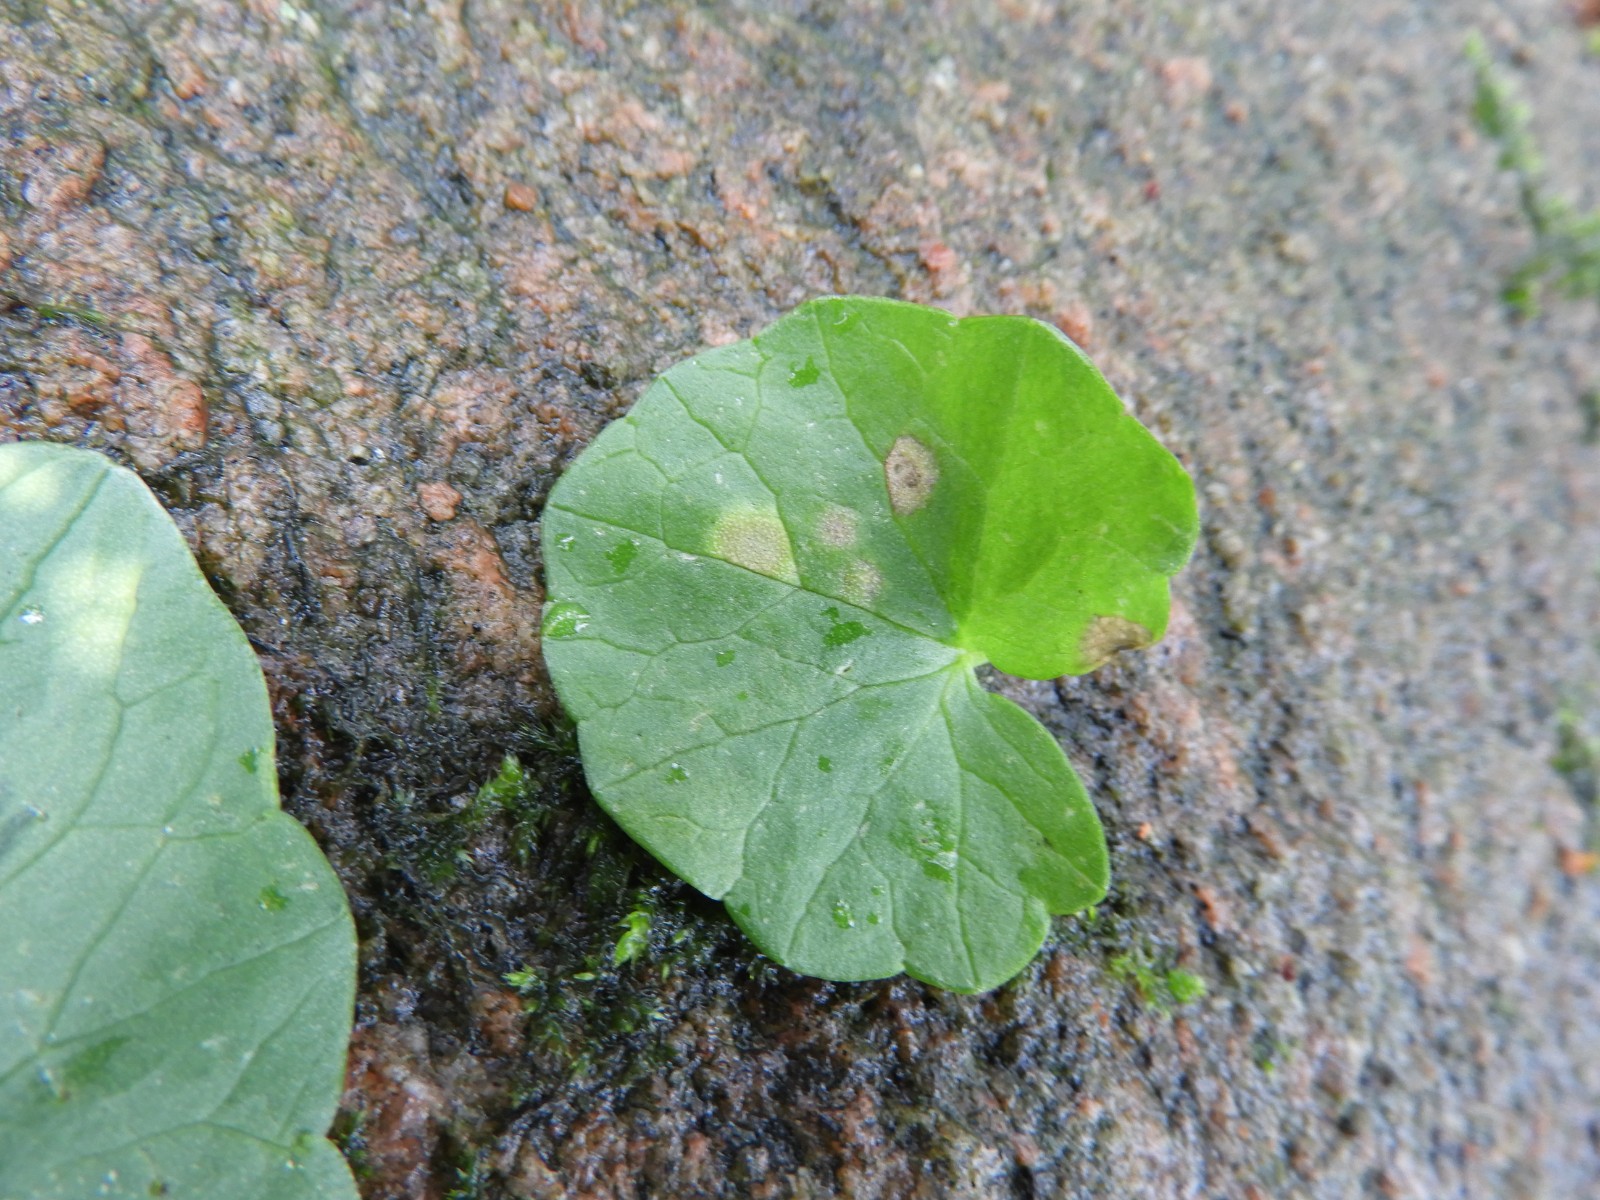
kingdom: Fungi
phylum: Basidiomycota
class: Exobasidiomycetes
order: Entylomatales
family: Entylomataceae
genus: Entyloma
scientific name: Entyloma ficariae
